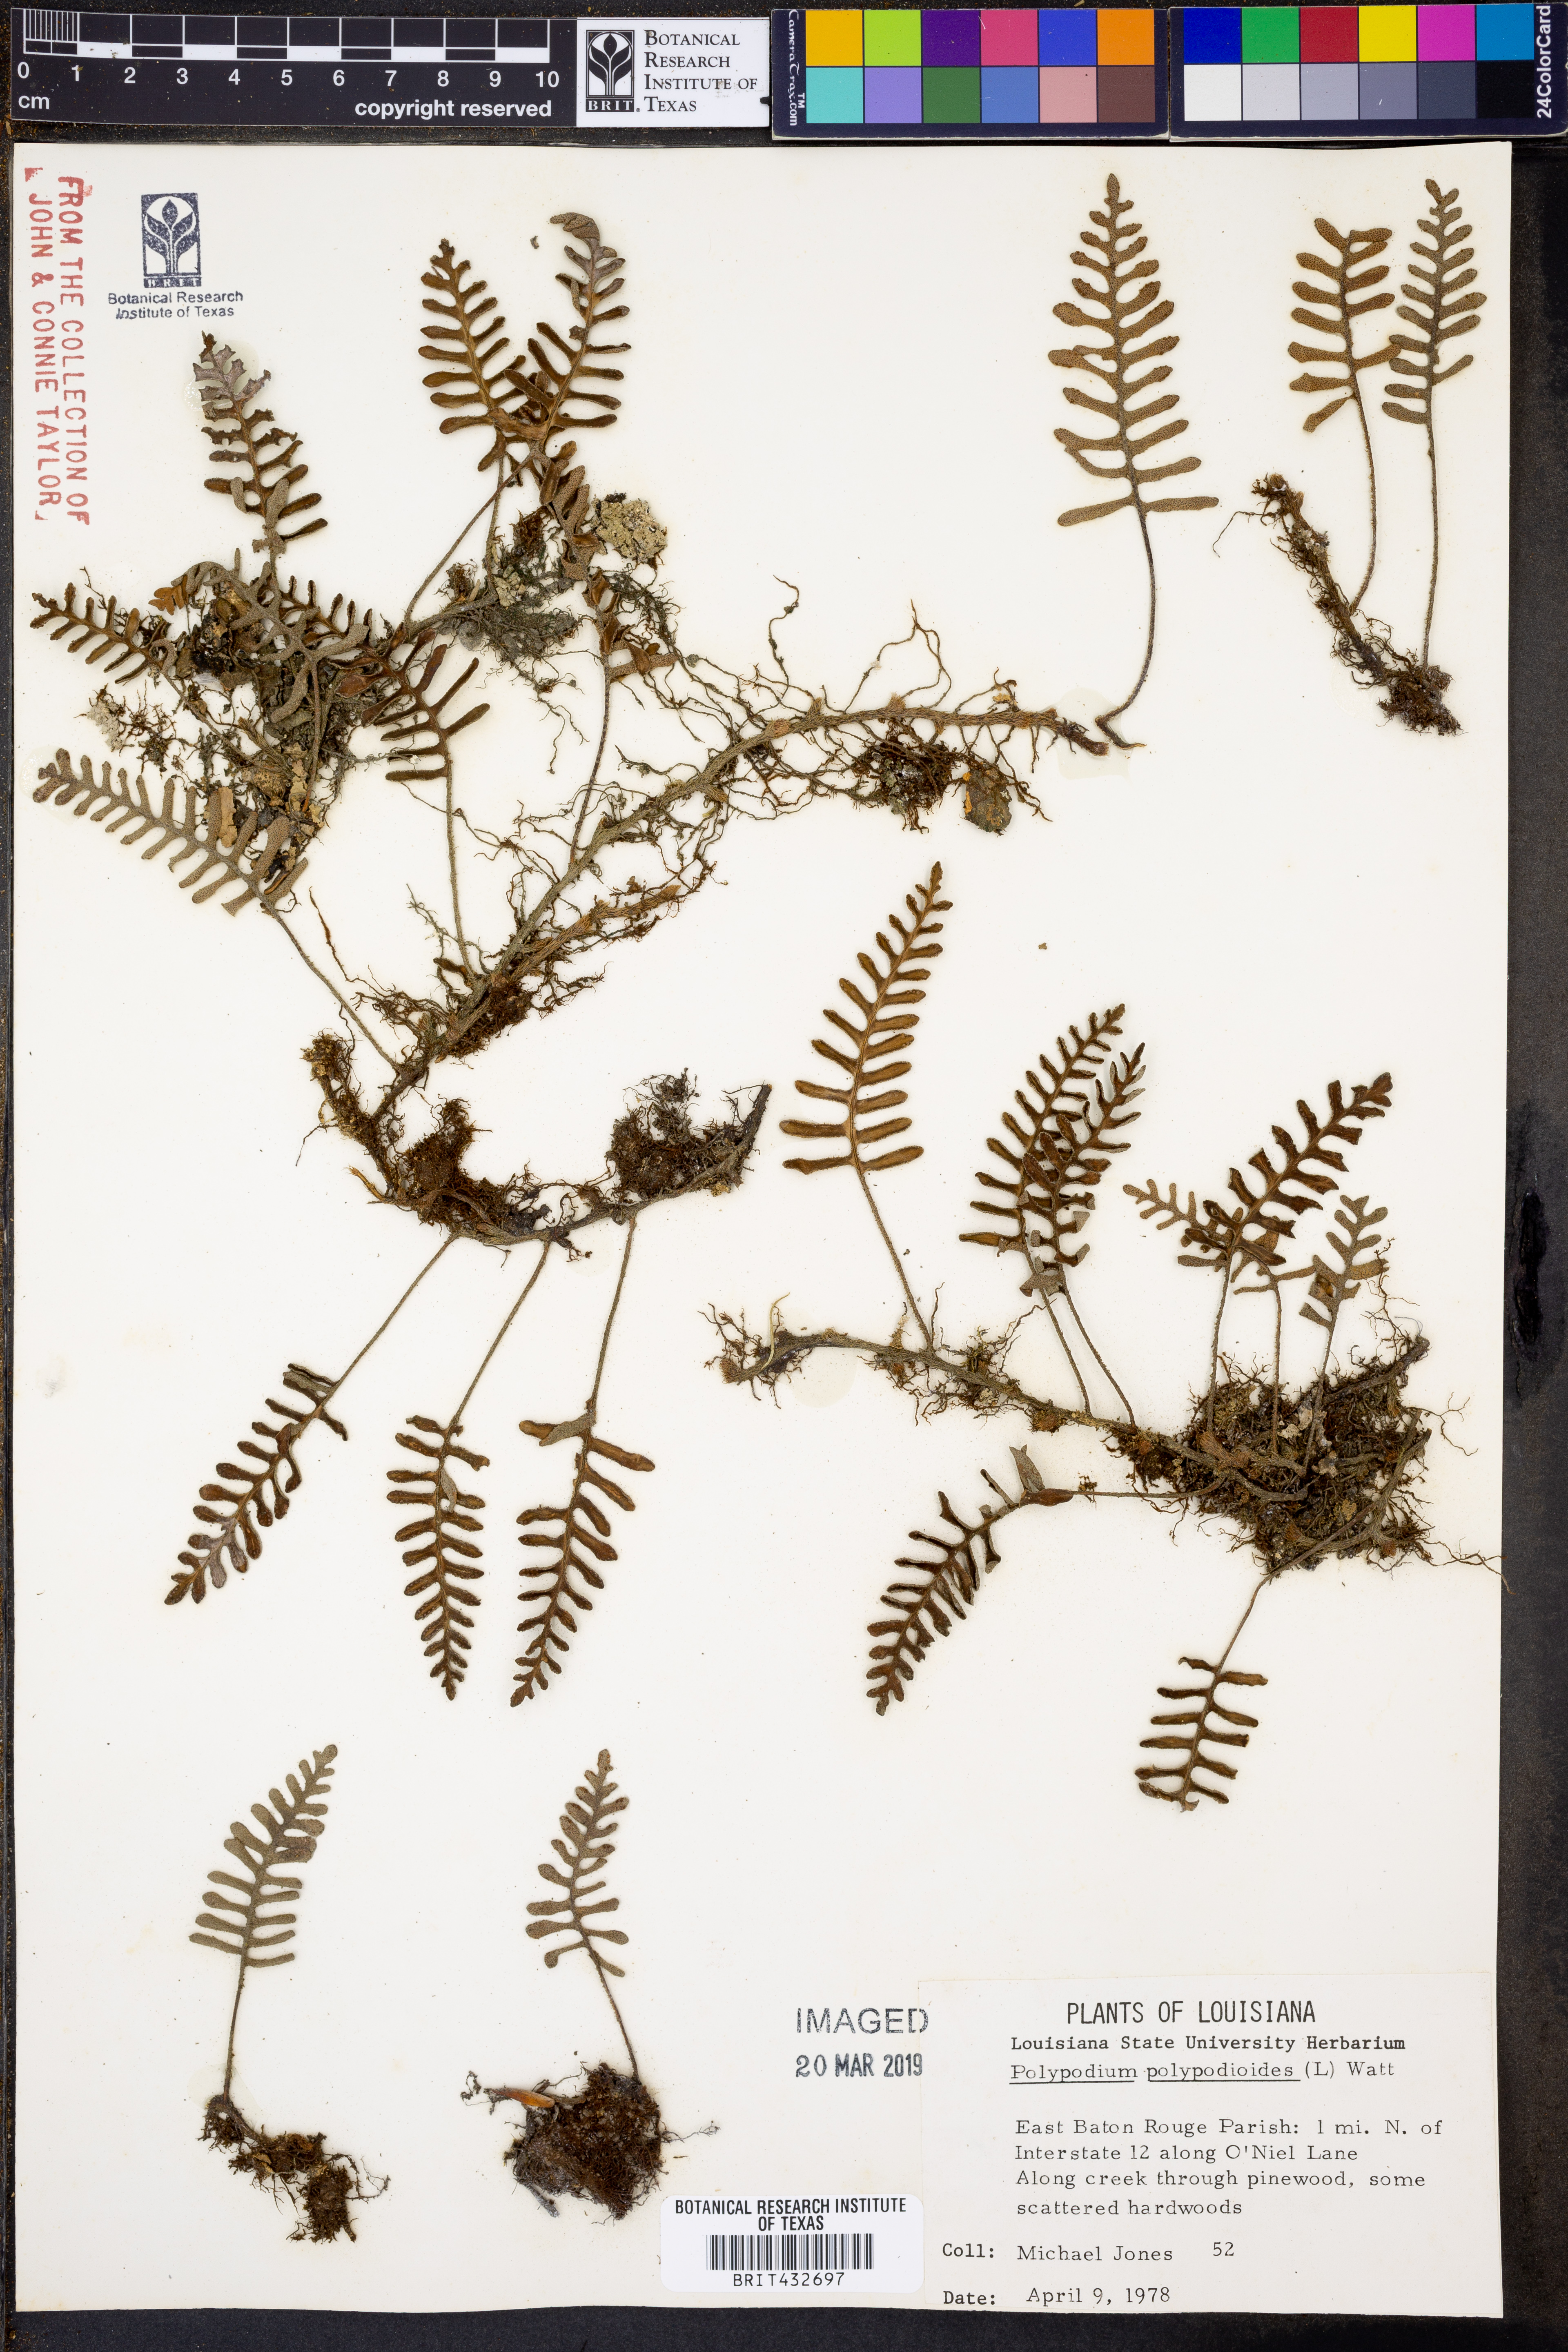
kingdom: Plantae
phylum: Tracheophyta
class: Polypodiopsida
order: Polypodiales
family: Polypodiaceae
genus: Pleopeltis
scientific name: Pleopeltis polypodioides
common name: Resurrection fern
